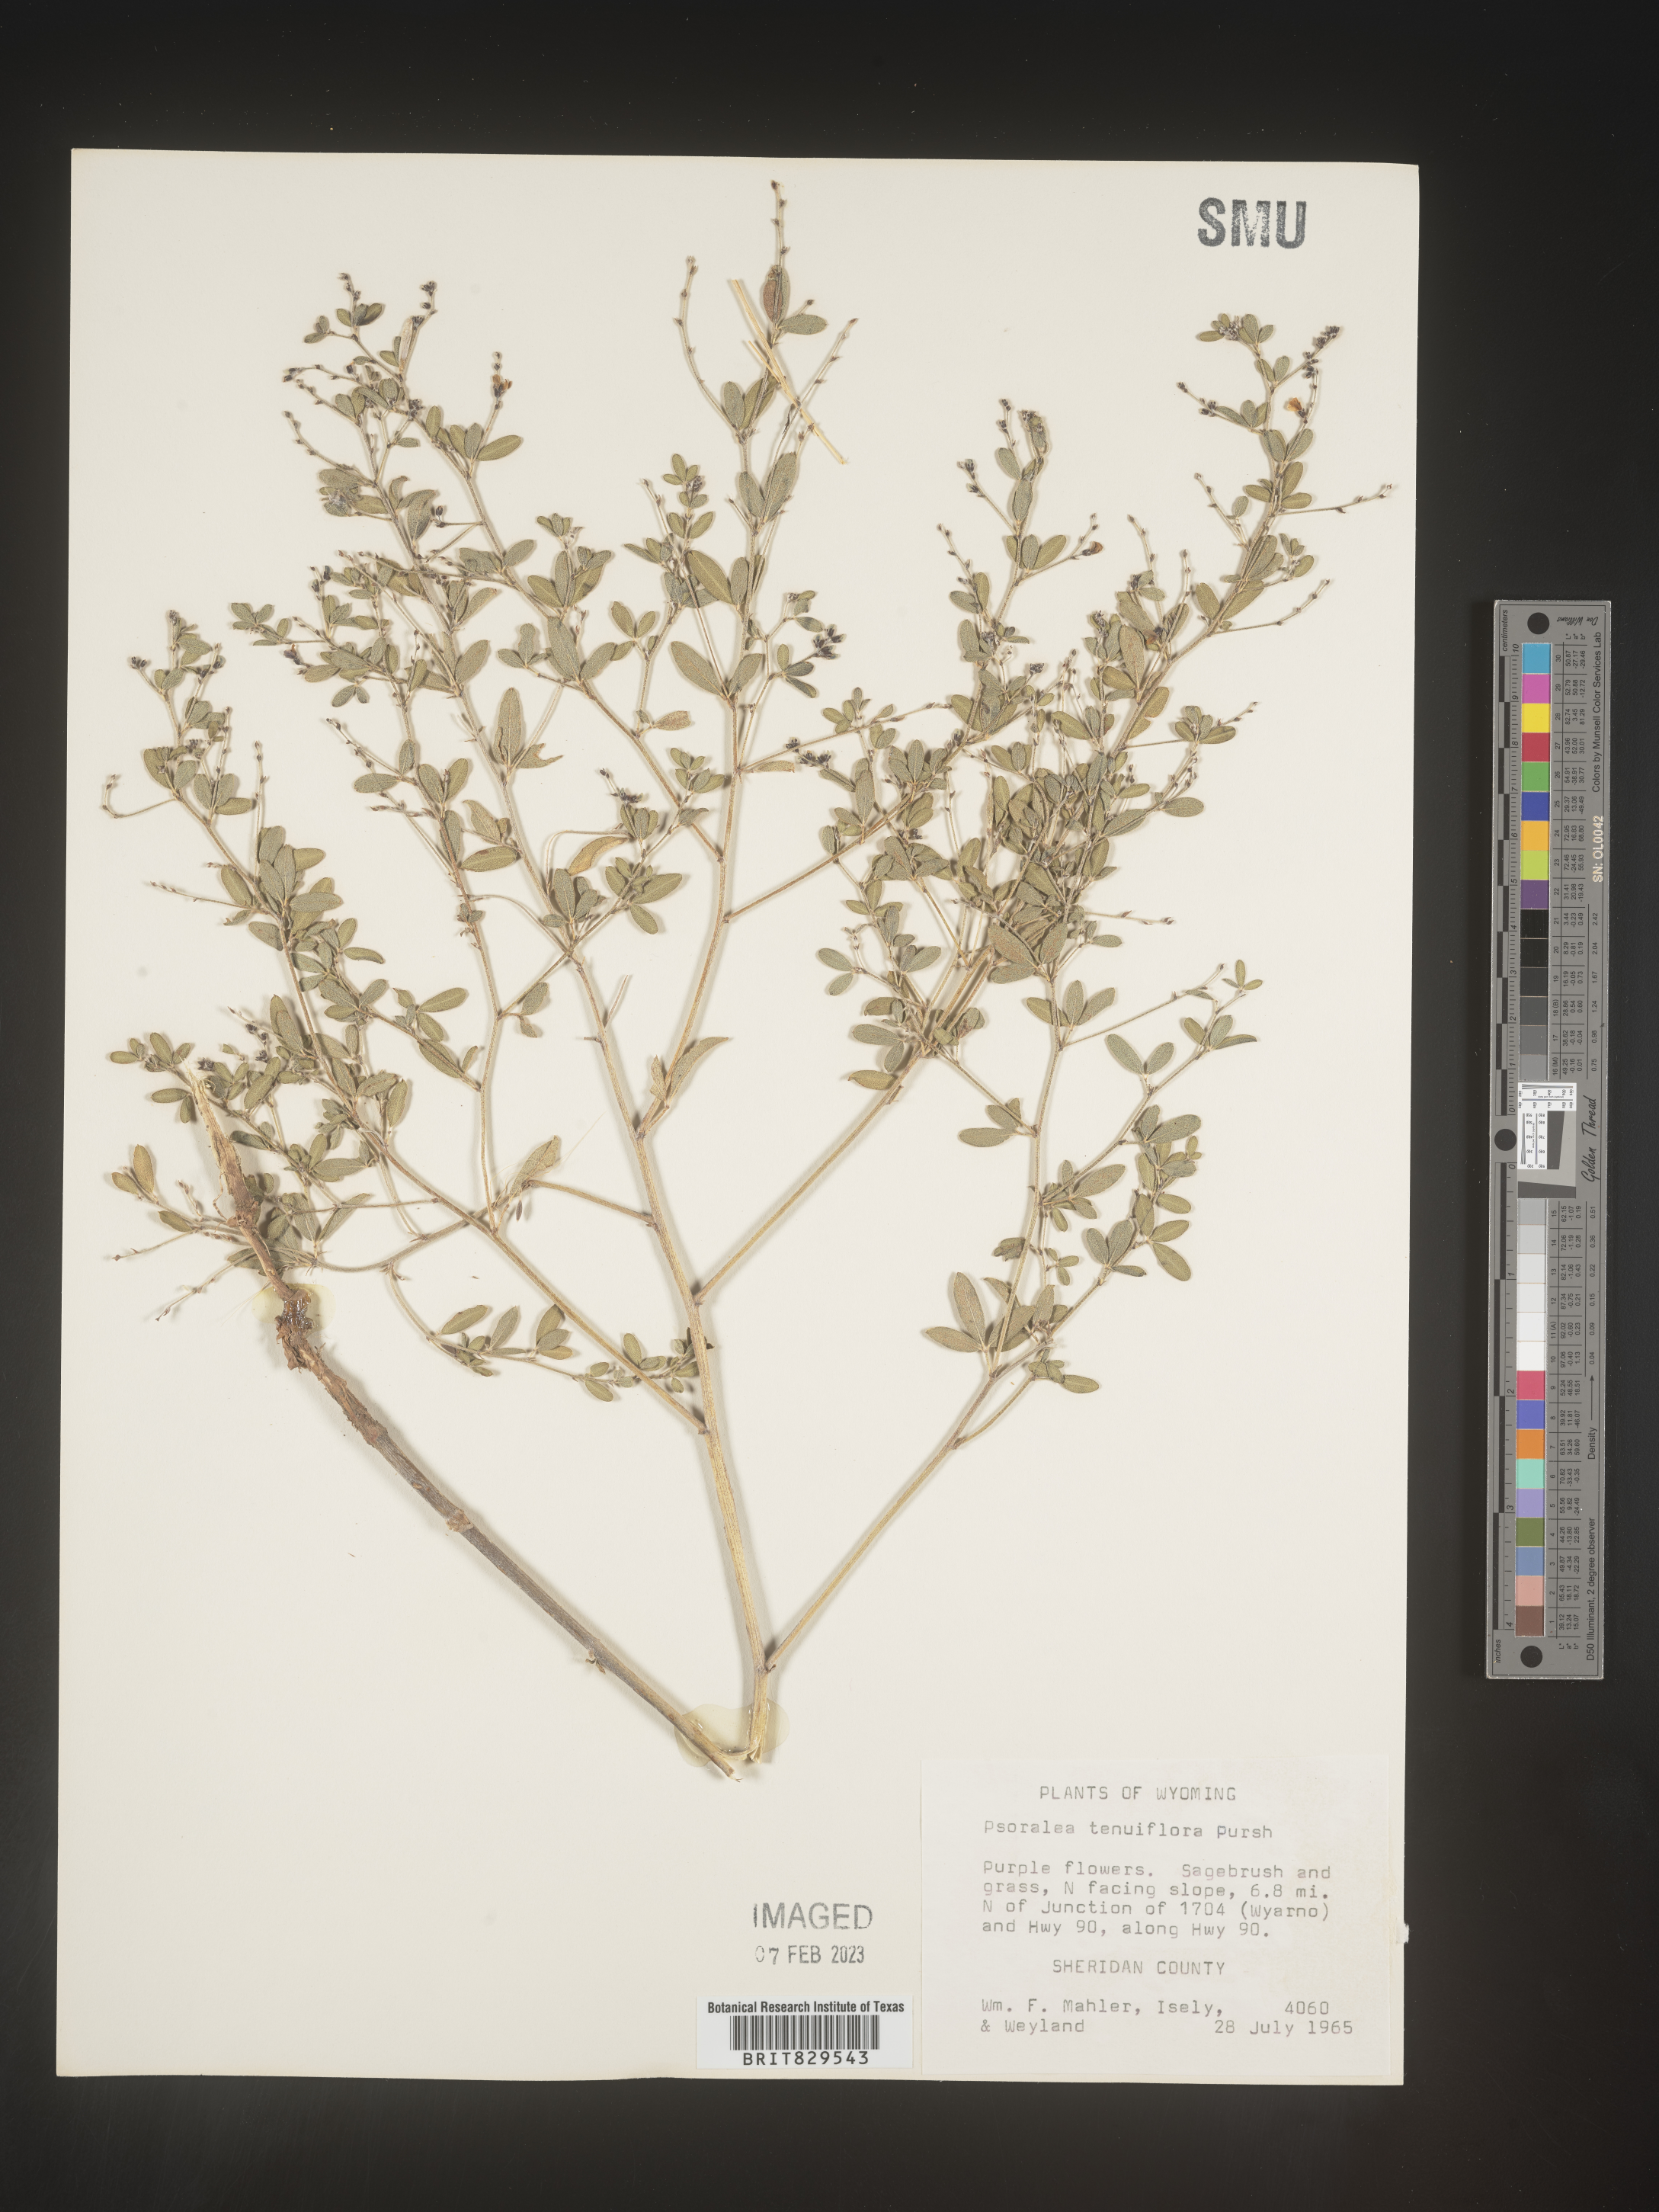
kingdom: Plantae
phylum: Tracheophyta
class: Magnoliopsida
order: Fabales
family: Fabaceae
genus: Pediomelum
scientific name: Pediomelum tenuiflorum
